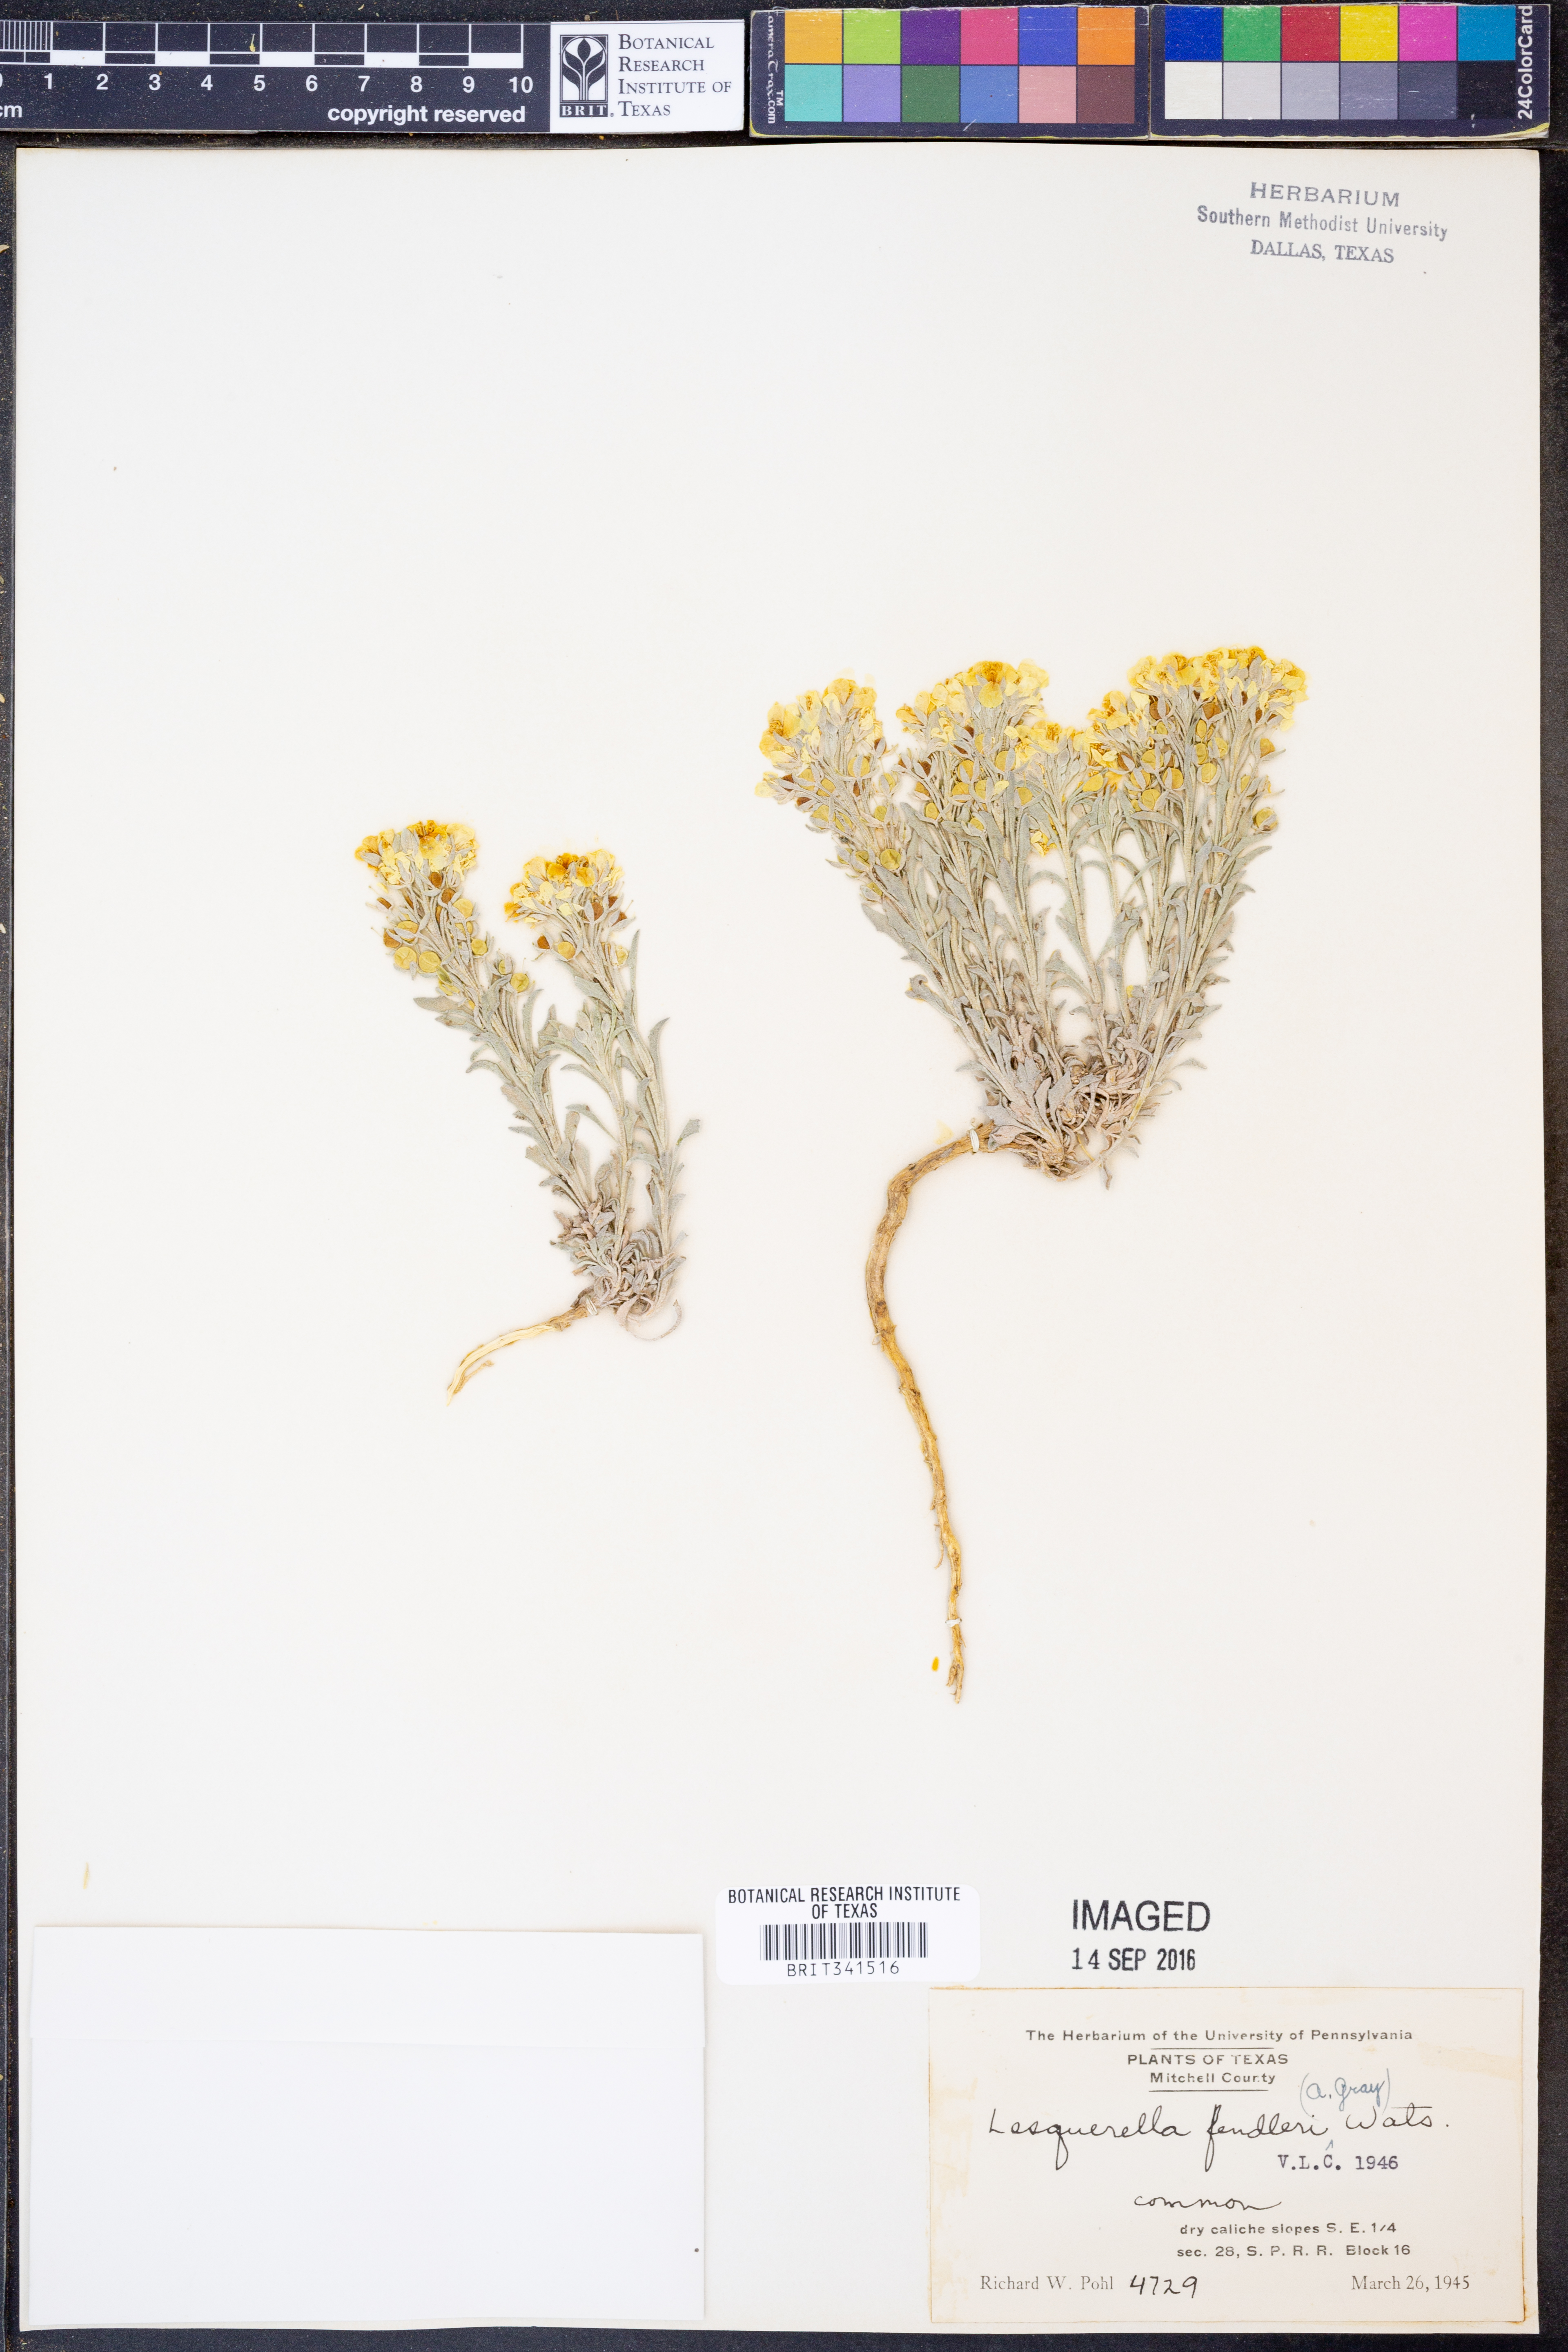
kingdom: Plantae
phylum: Tracheophyta
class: Magnoliopsida
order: Brassicales
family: Brassicaceae
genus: Physaria
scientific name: Physaria fendleri
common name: Fendler's bladderpod
